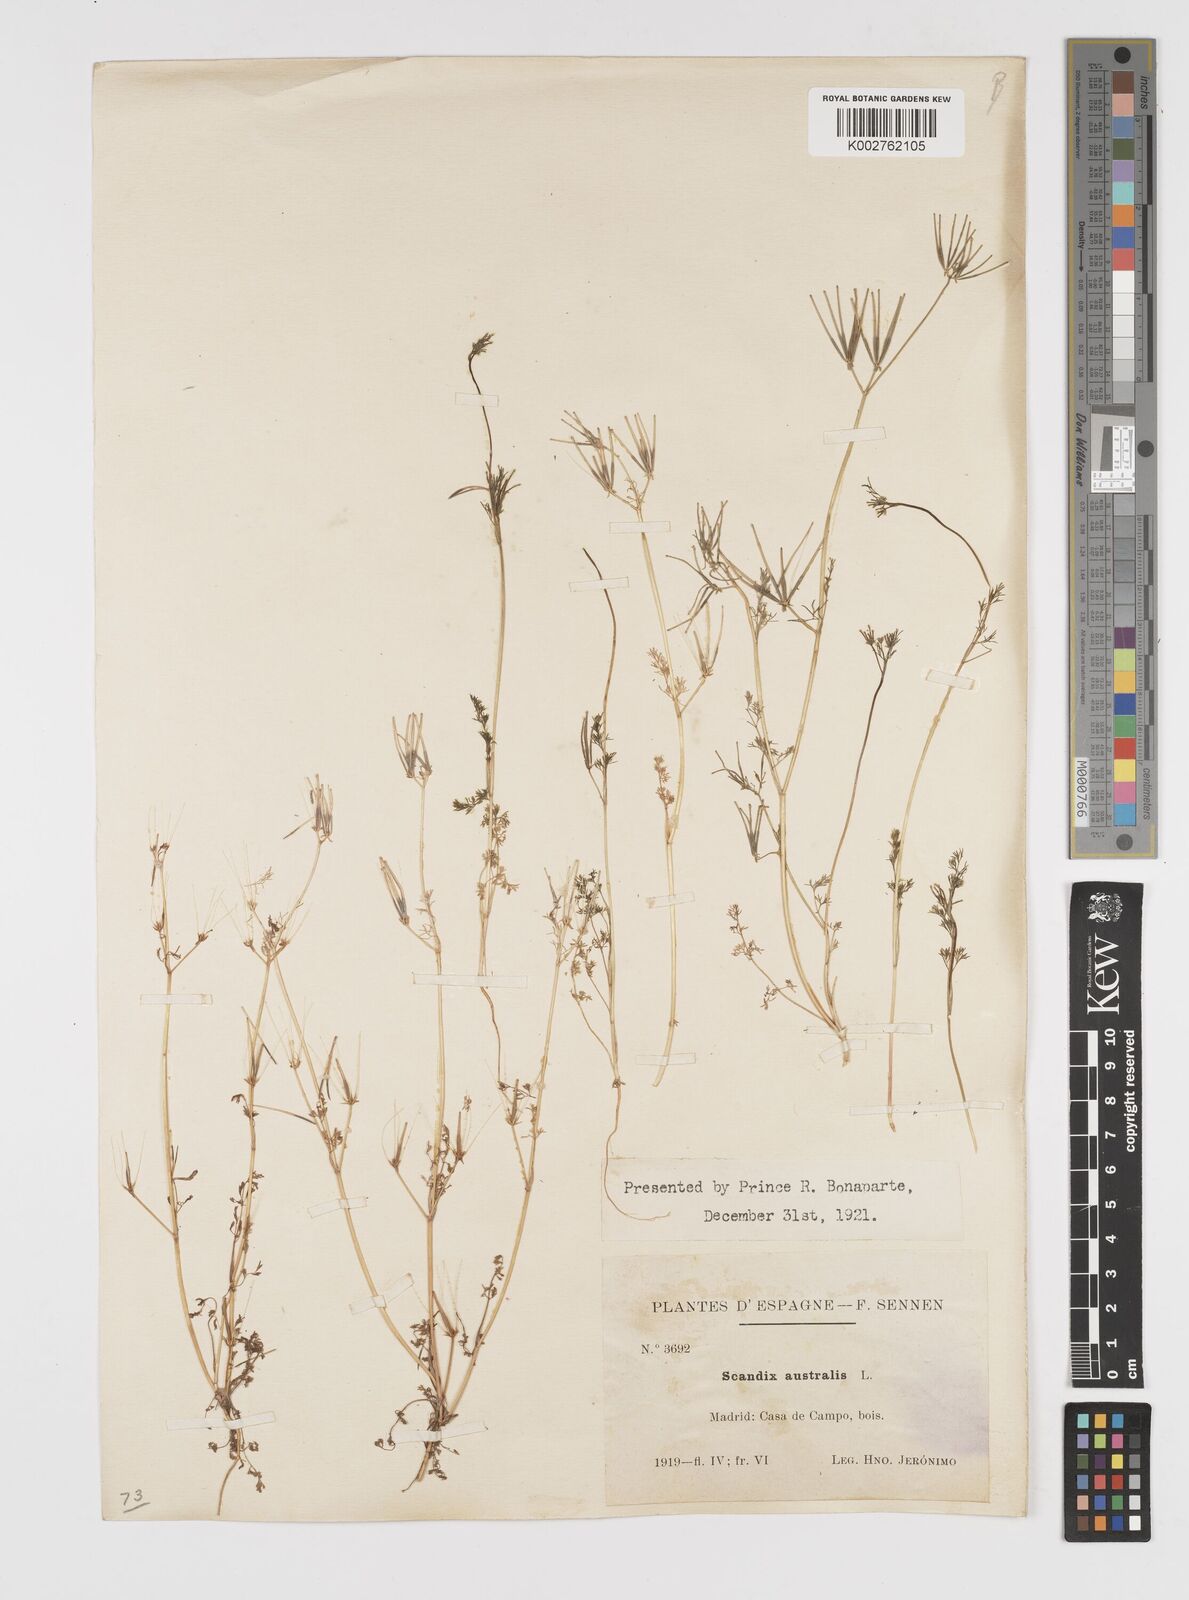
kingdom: Plantae
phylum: Tracheophyta
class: Magnoliopsida
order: Apiales
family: Apiaceae
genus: Scandix
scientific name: Scandix australis
